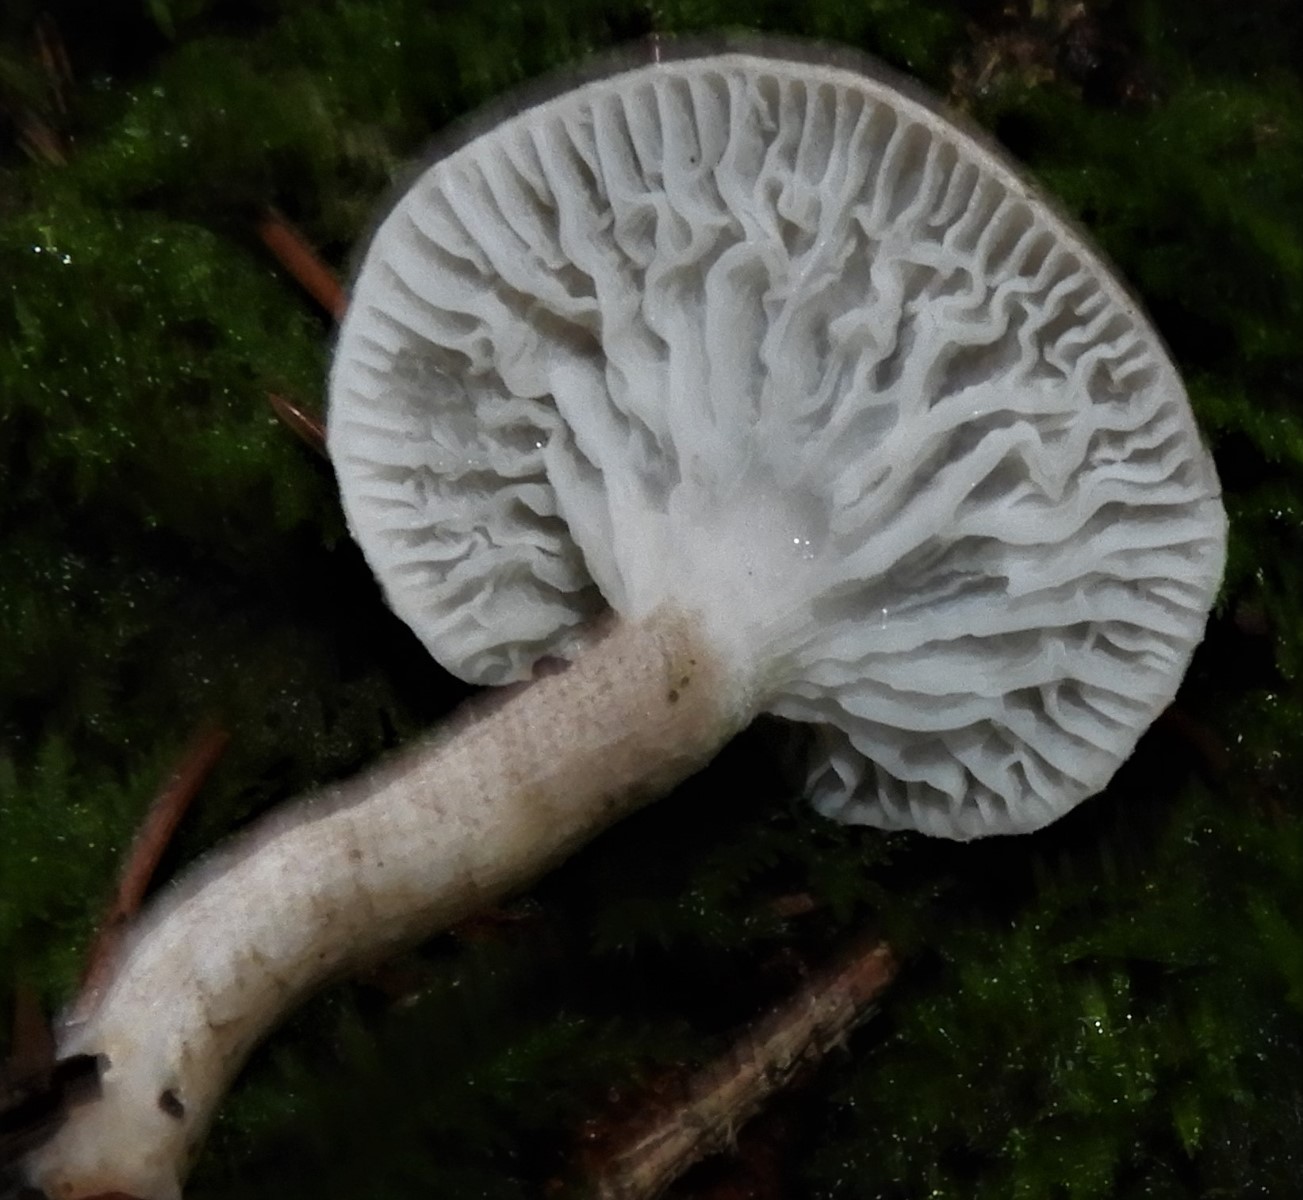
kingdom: Fungi
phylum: Basidiomycota
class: Agaricomycetes
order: Agaricales
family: Hygrophoraceae
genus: Hygrophorus
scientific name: Hygrophorus pustulatus
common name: mørkprikket sneglehat
